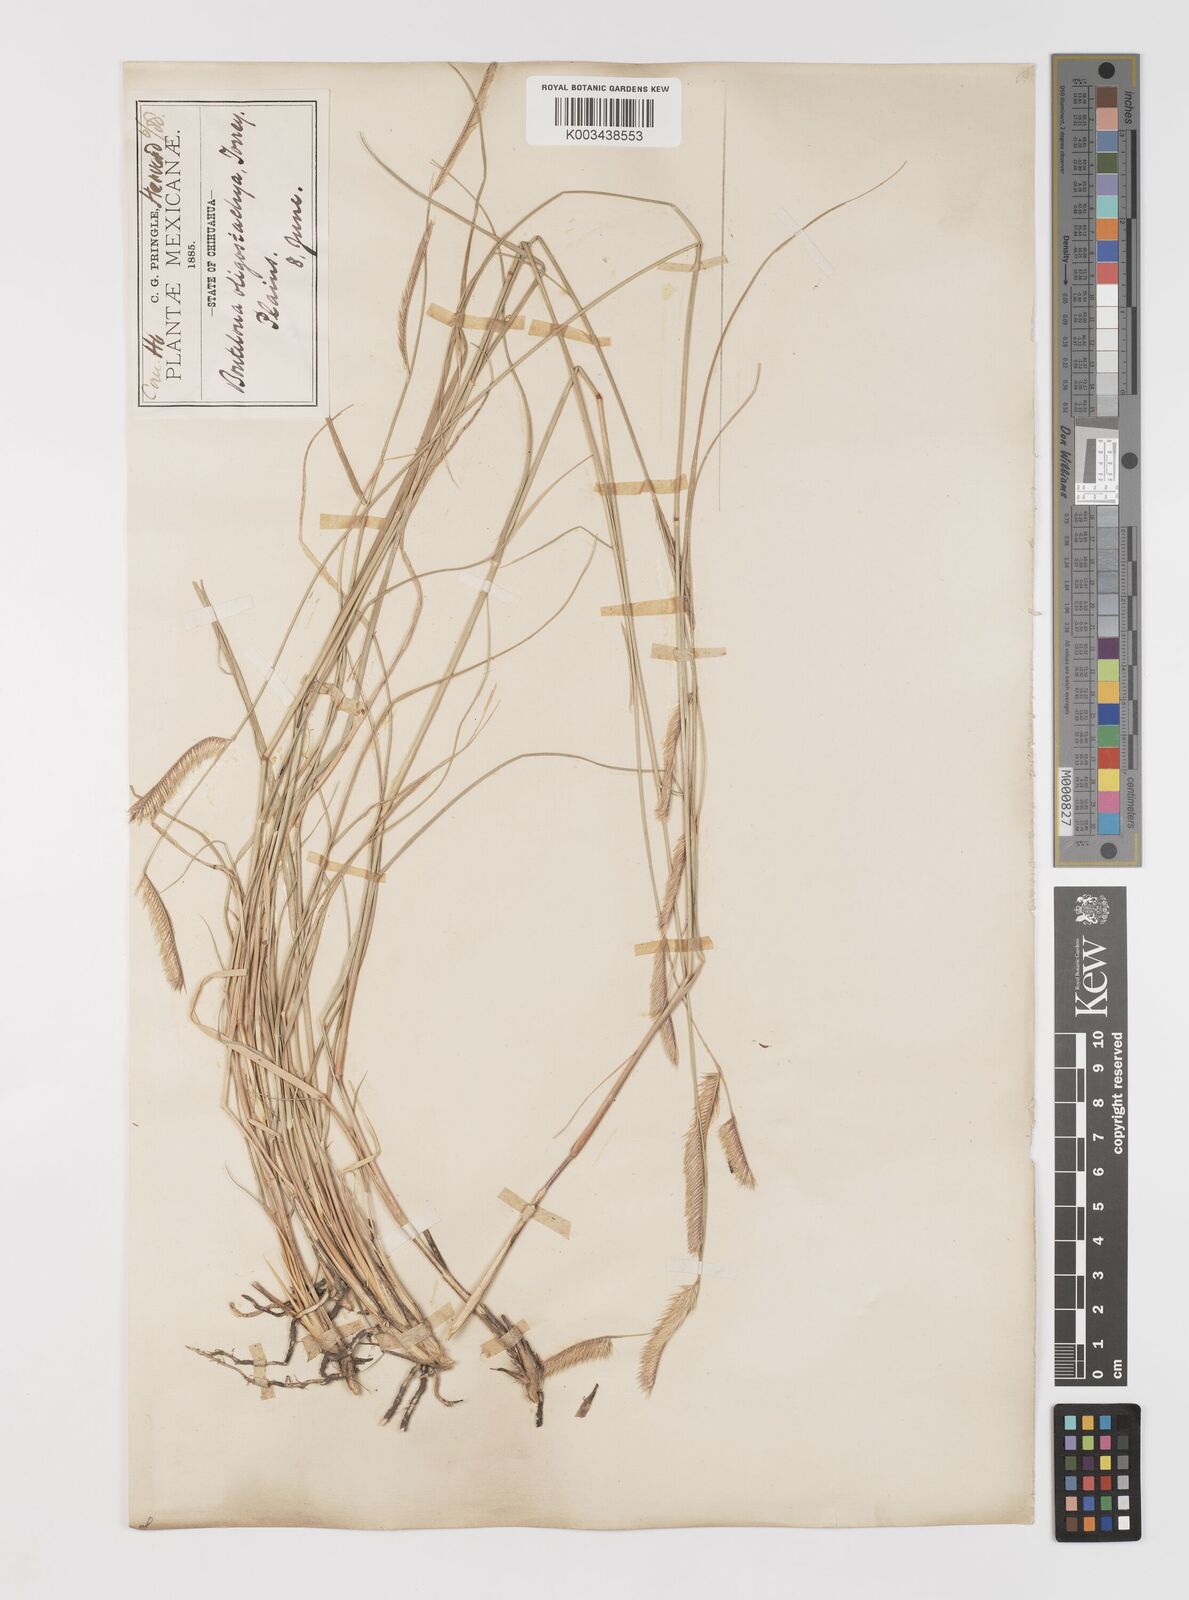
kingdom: Plantae
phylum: Tracheophyta
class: Liliopsida
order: Poales
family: Poaceae
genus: Bouteloua
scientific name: Bouteloua gracilis
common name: Blue grama
